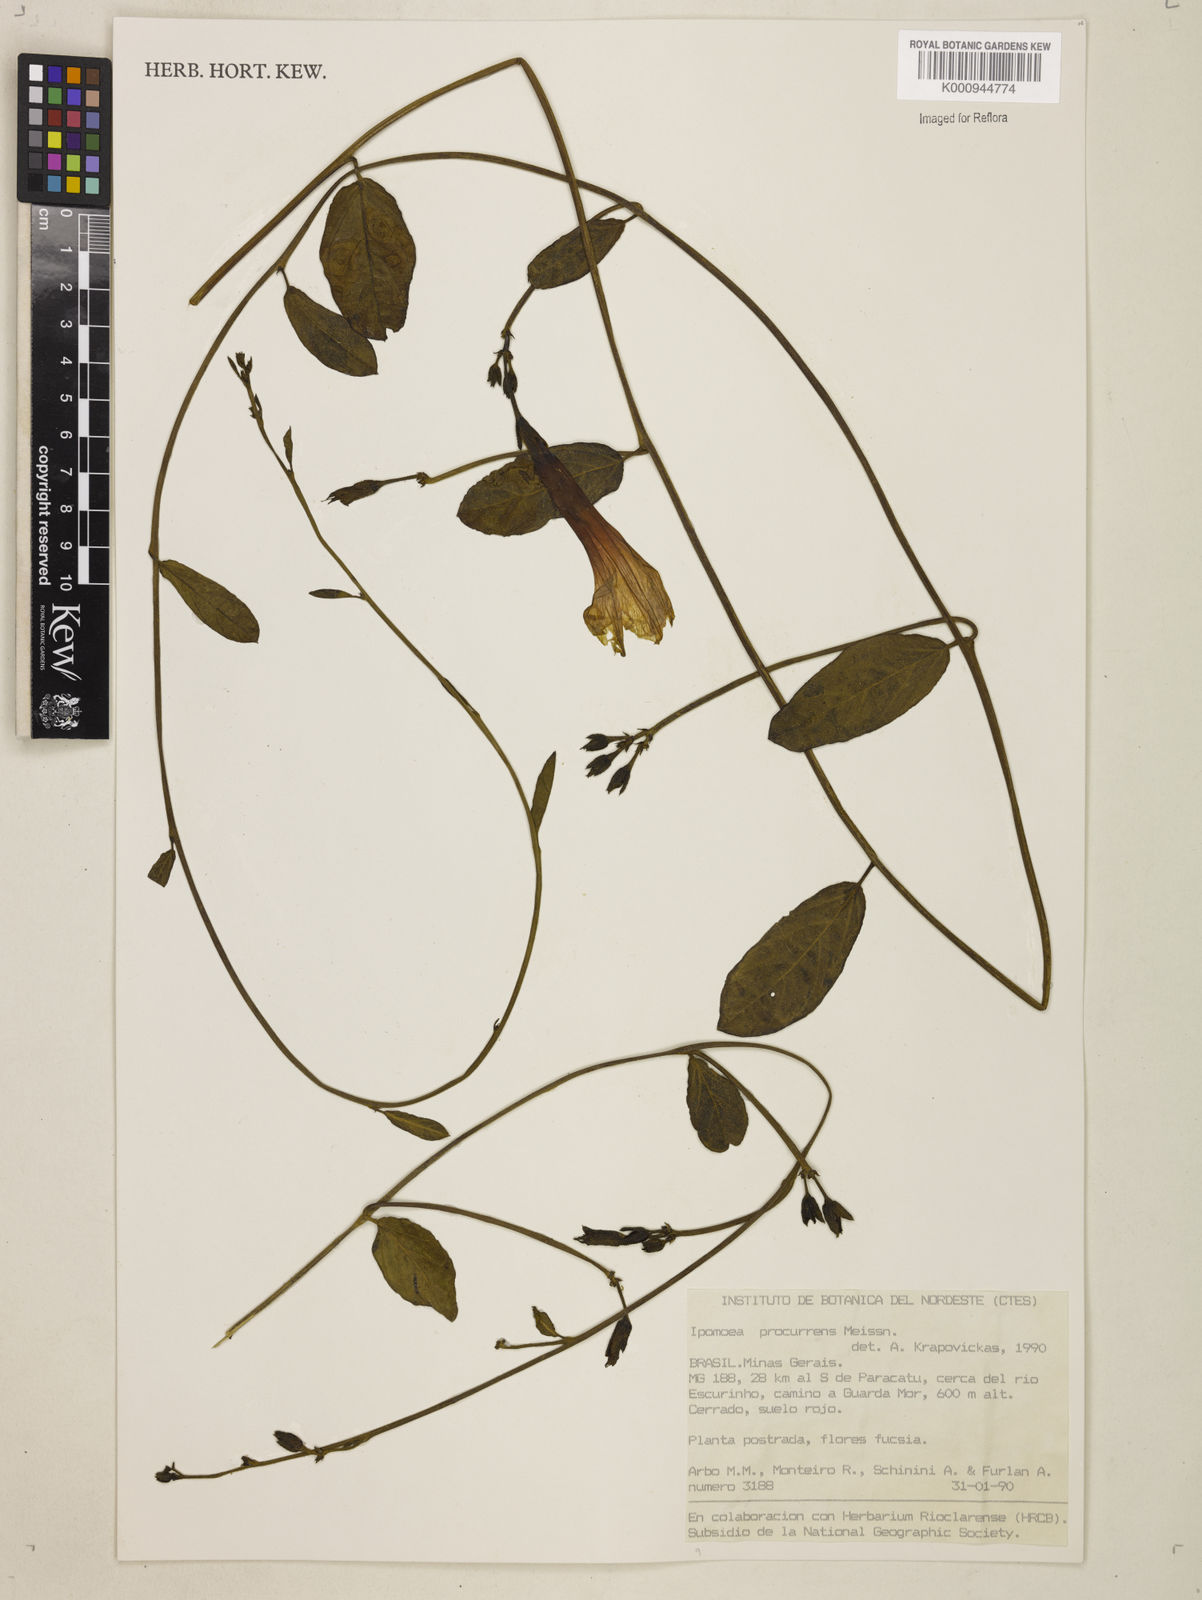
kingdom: Plantae
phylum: Tracheophyta
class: Magnoliopsida
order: Solanales
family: Convolvulaceae
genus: Ipomoea
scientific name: Ipomoea procurrens
